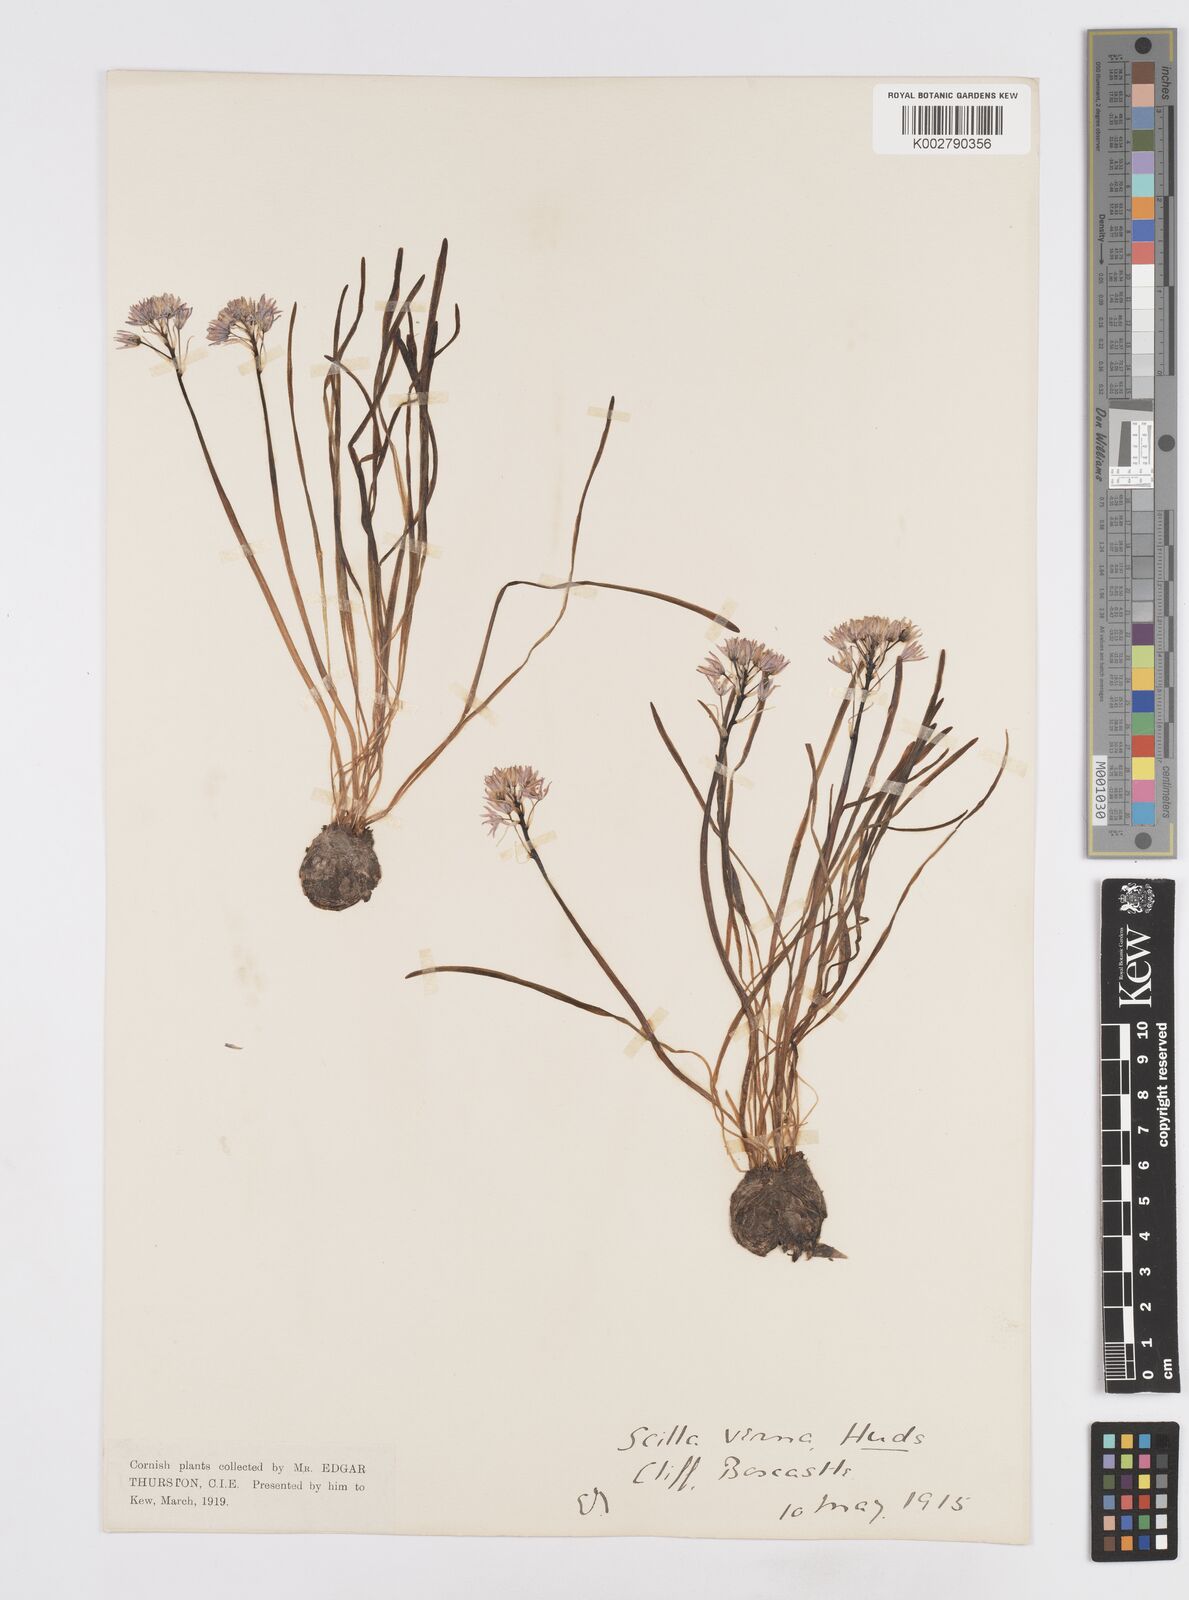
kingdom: Plantae
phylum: Tracheophyta
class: Liliopsida
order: Asparagales
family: Asparagaceae
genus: Scilla
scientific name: Scilla verna
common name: Spring squill
